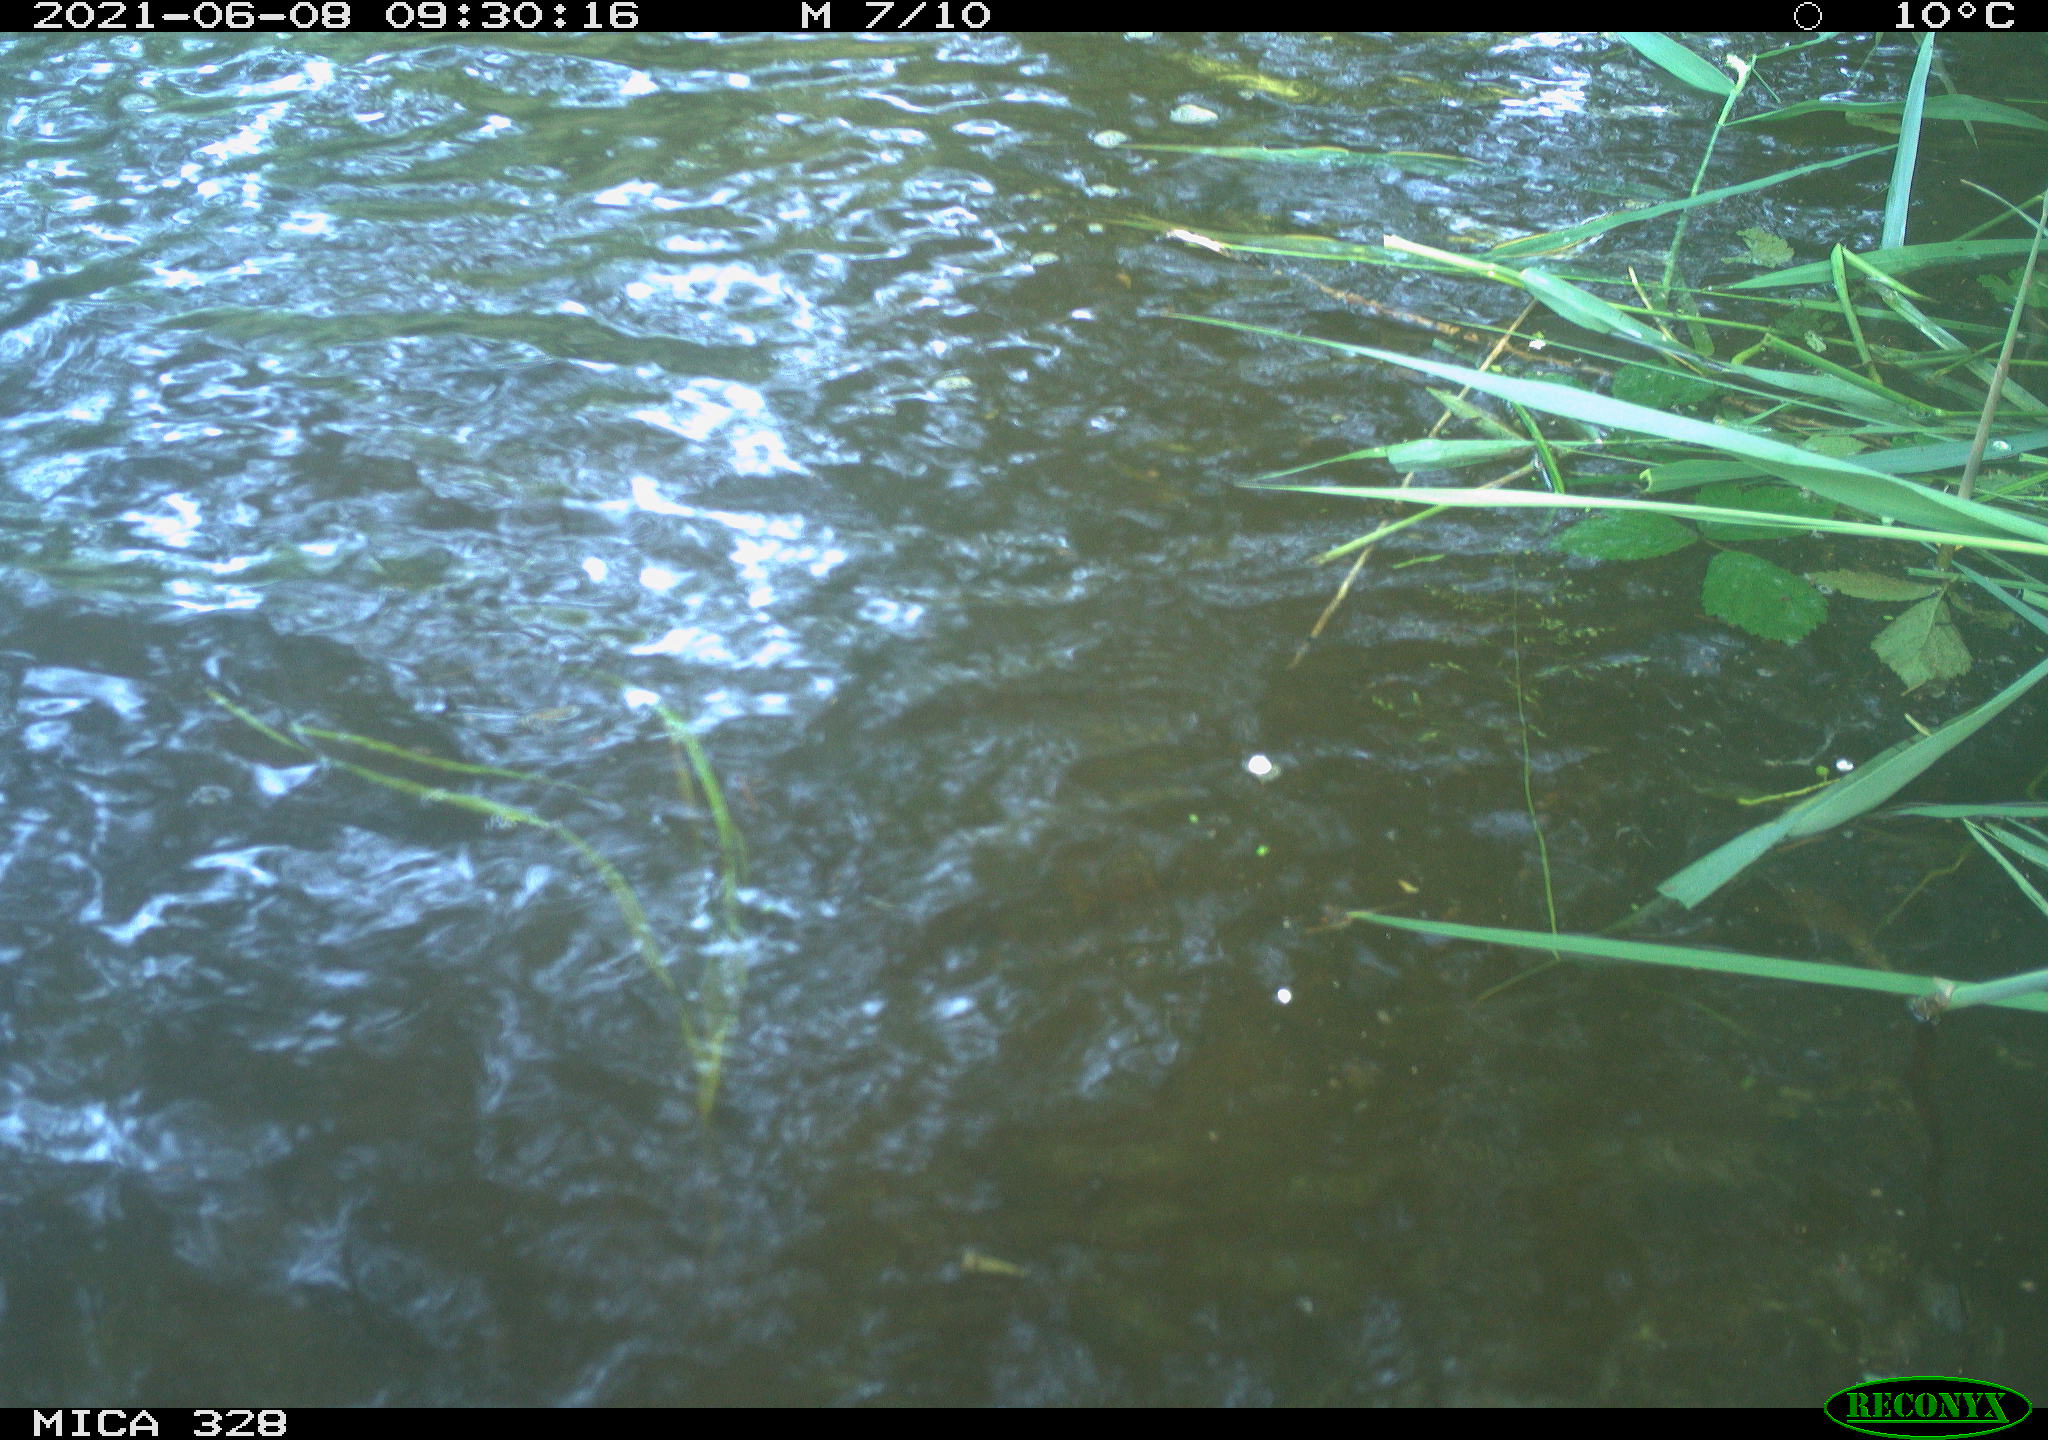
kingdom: Animalia
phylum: Chordata
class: Aves
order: Anseriformes
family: Anatidae
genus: Aix
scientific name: Aix galericulata
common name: Mandarin duck
